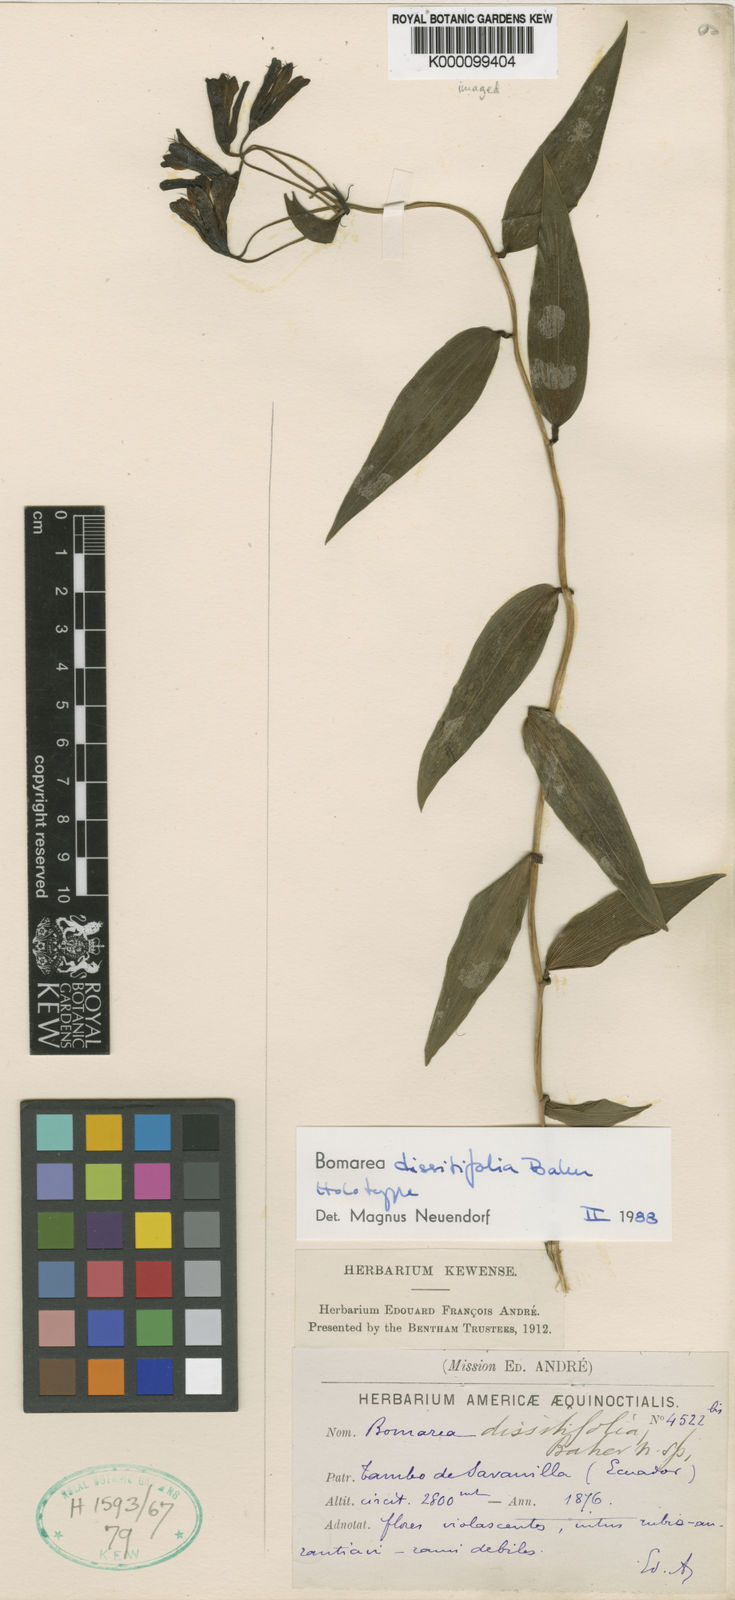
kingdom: Plantae
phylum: Tracheophyta
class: Liliopsida
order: Liliales
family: Alstroemeriaceae
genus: Bomarea
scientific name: Bomarea dissitifolia
